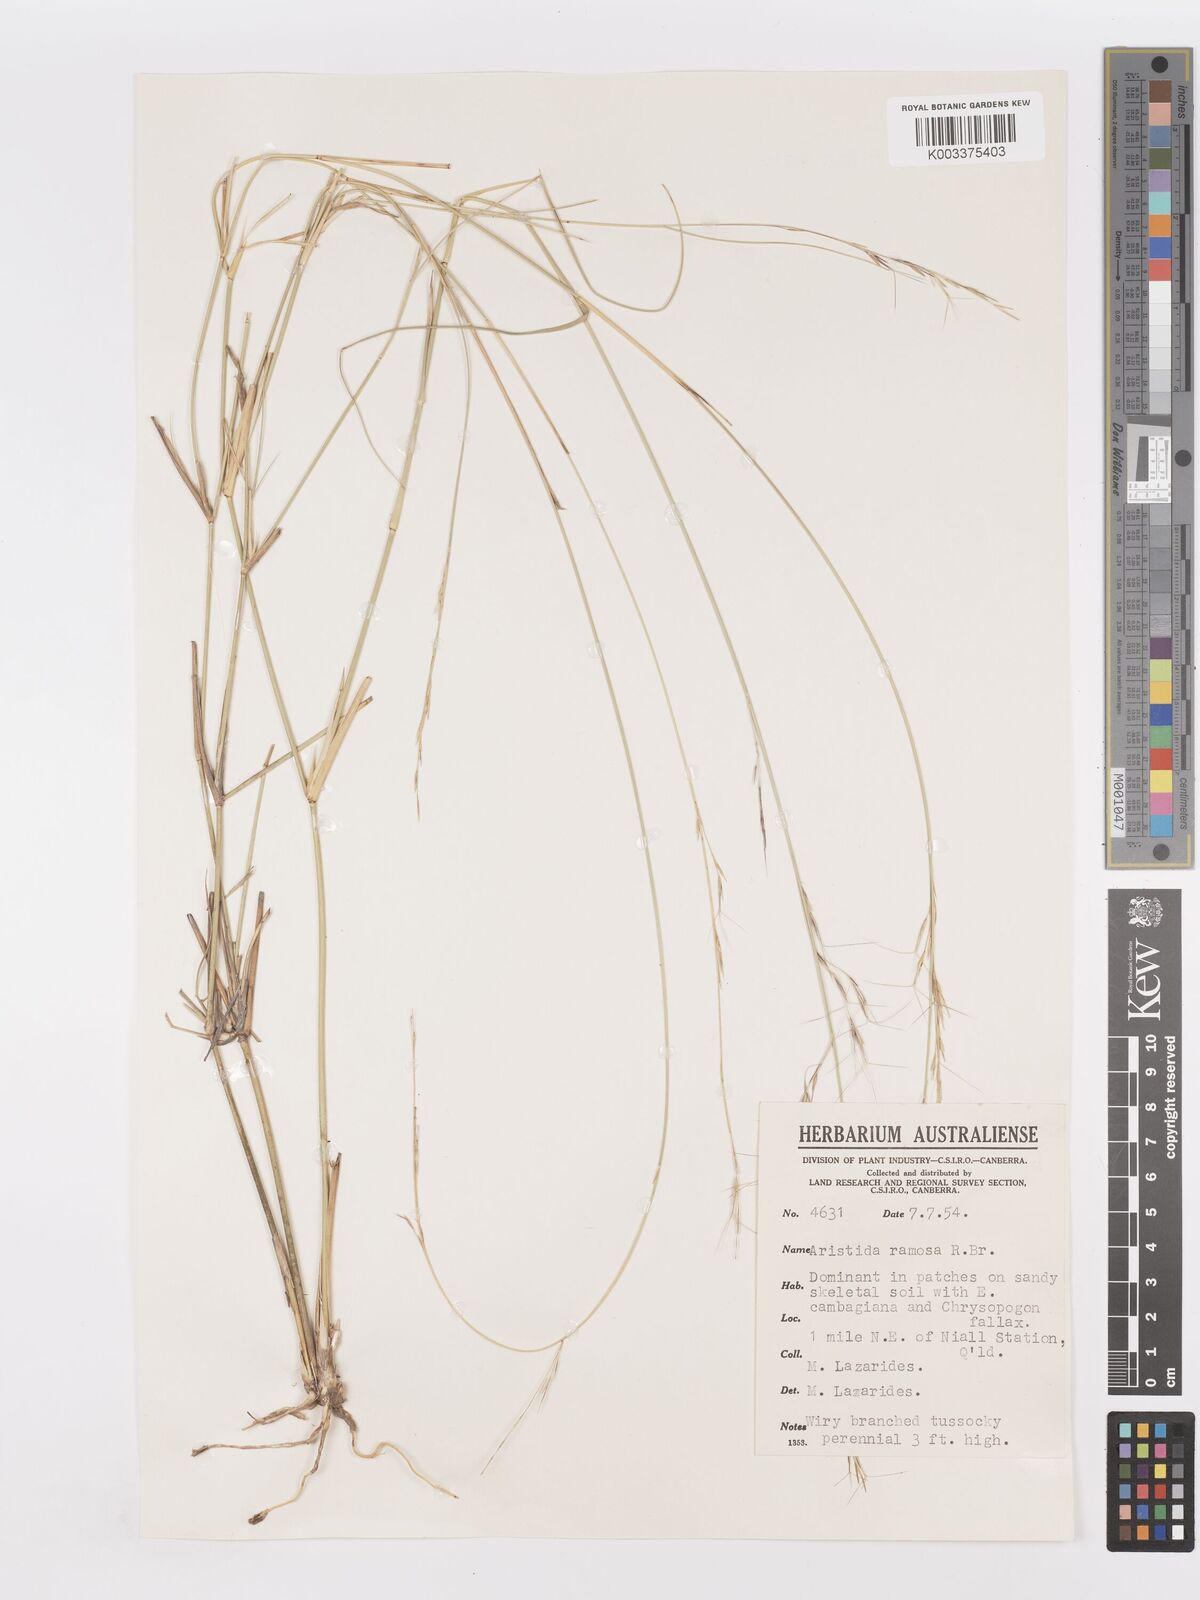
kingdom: Plantae
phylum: Tracheophyta
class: Liliopsida
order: Poales
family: Poaceae
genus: Aristida
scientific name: Aristida ramosa
